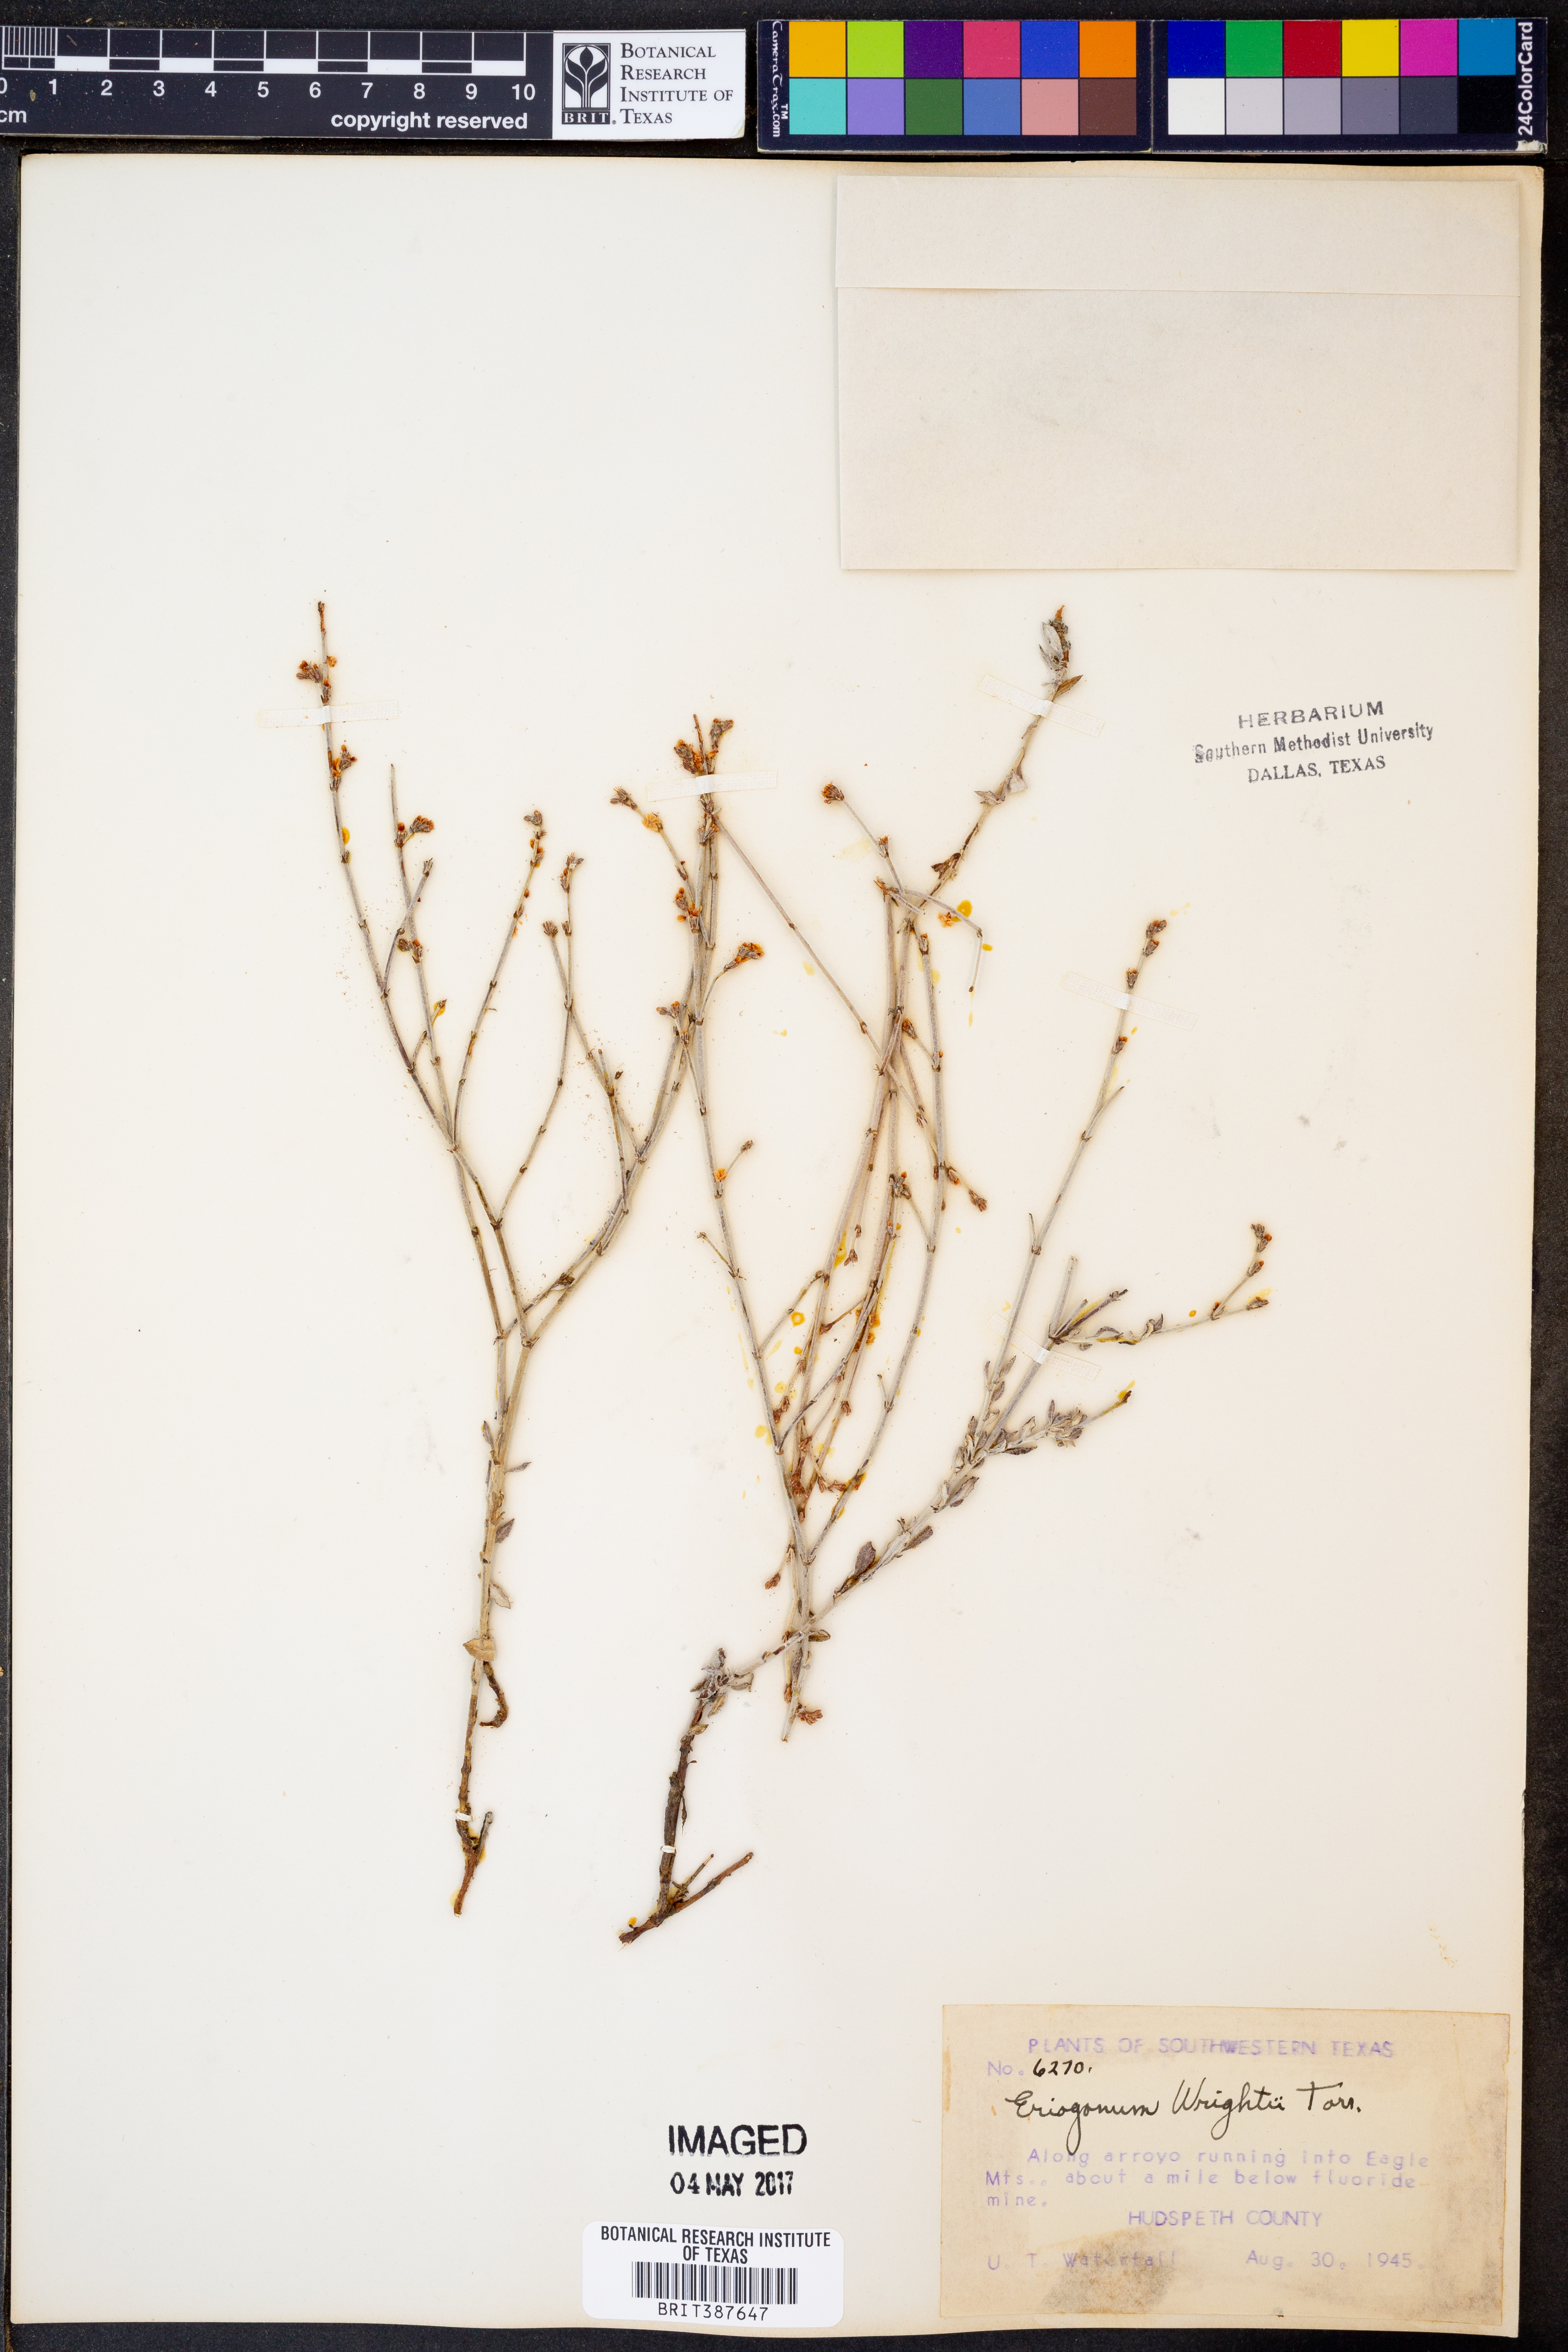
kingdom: Plantae
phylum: Tracheophyta
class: Magnoliopsida
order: Caryophyllales
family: Polygonaceae
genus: Eriogonum
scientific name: Eriogonum wrightii
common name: Bastard-sage
